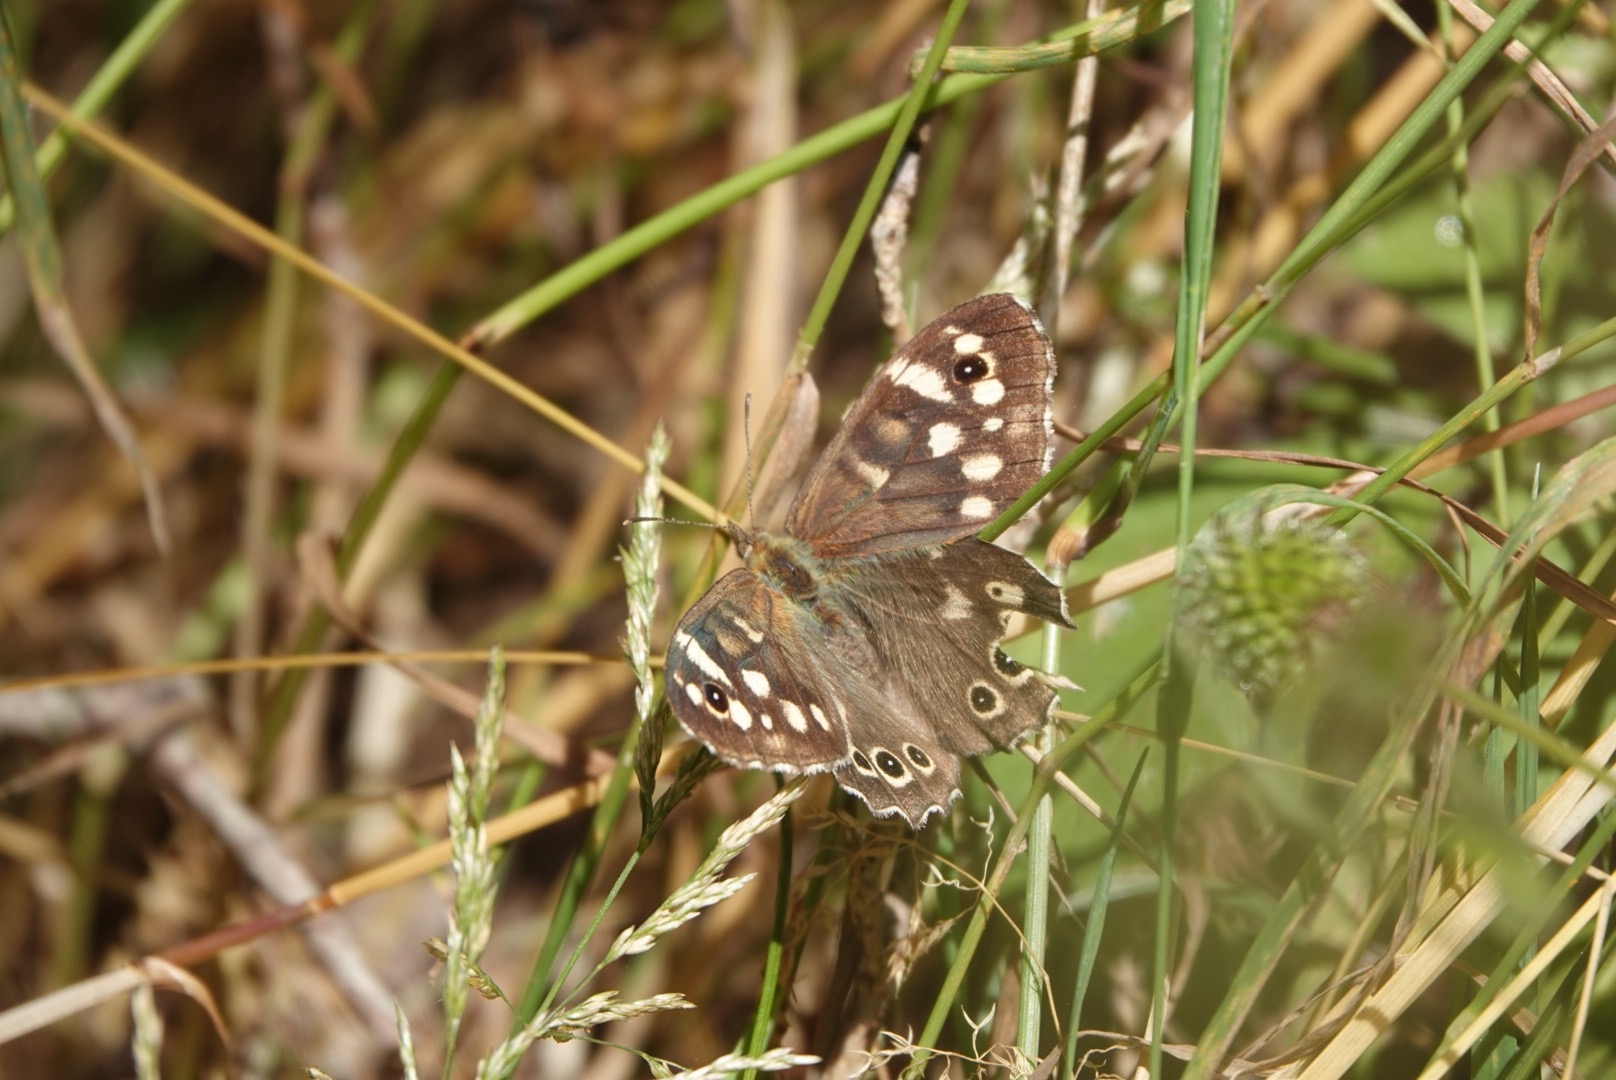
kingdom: Animalia
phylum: Arthropoda
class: Insecta
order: Lepidoptera
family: Nymphalidae
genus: Pararge
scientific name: Pararge aegeria
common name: Skovrandøje
